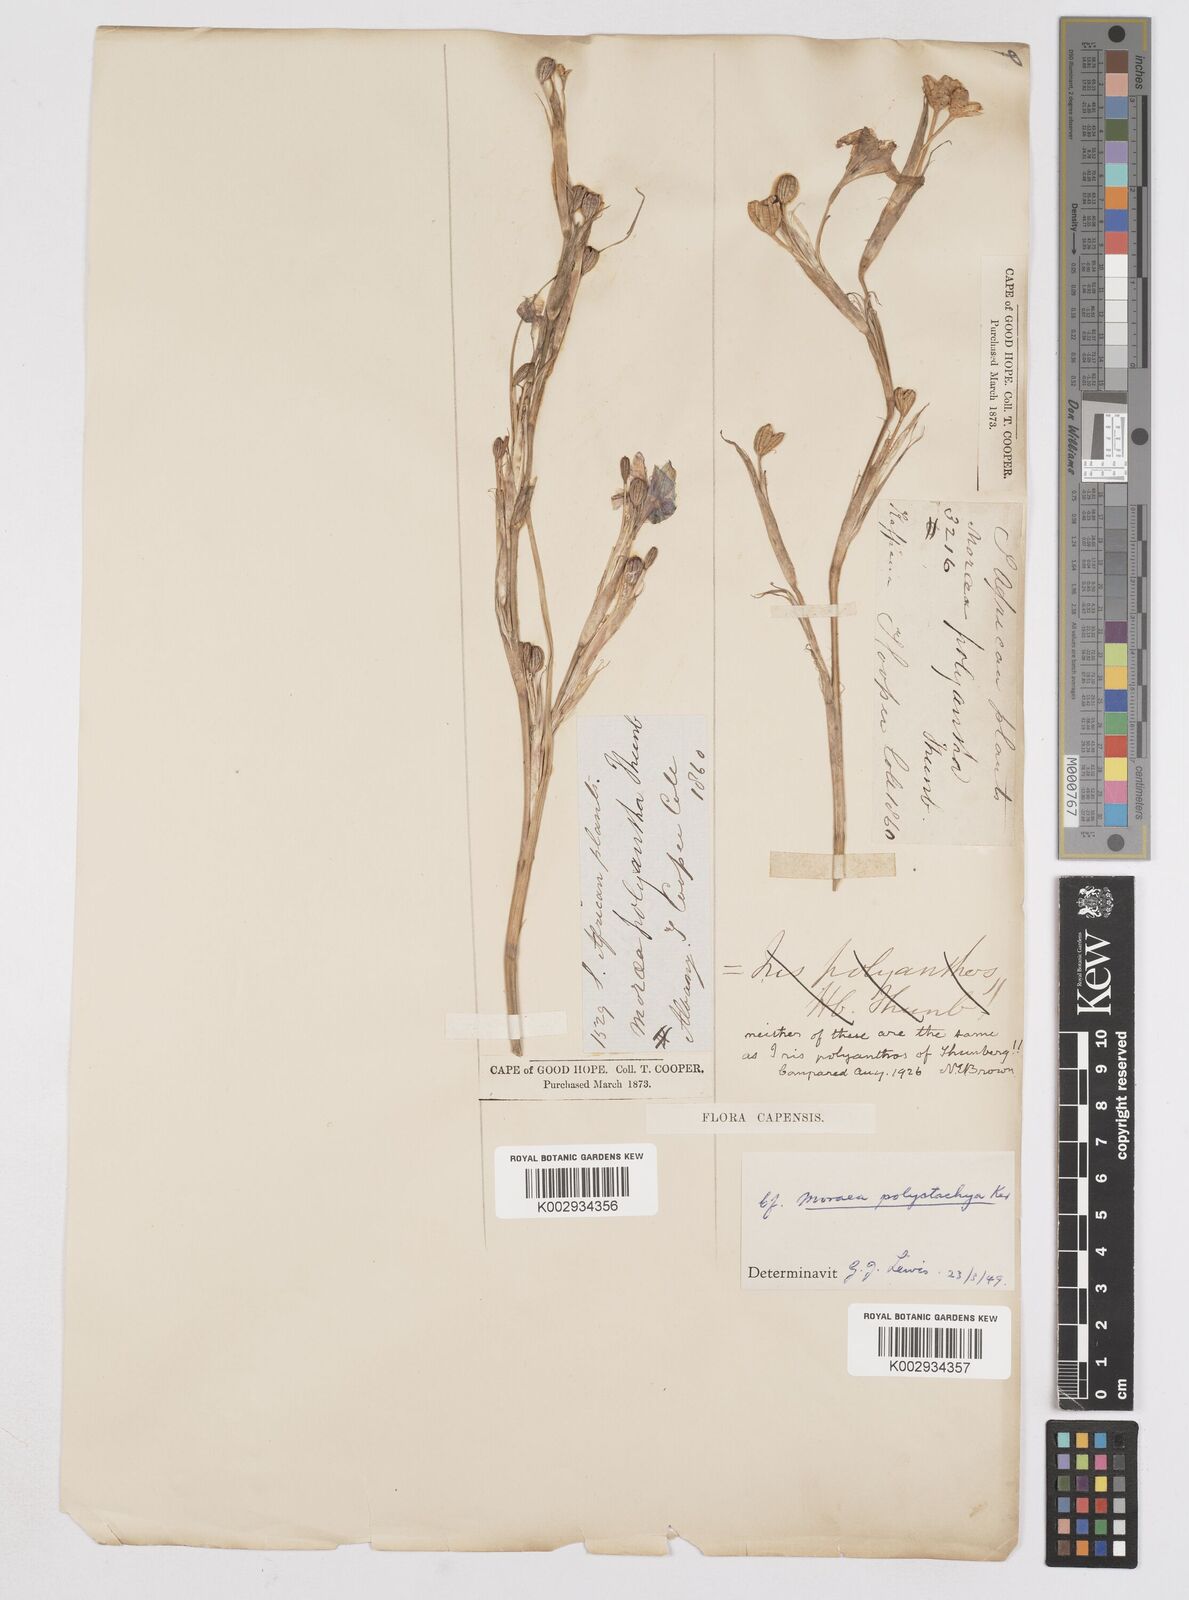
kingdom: Plantae
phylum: Tracheophyta
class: Liliopsida
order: Asparagales
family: Iridaceae
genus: Moraea
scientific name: Moraea polystachya
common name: Blue-tulip
